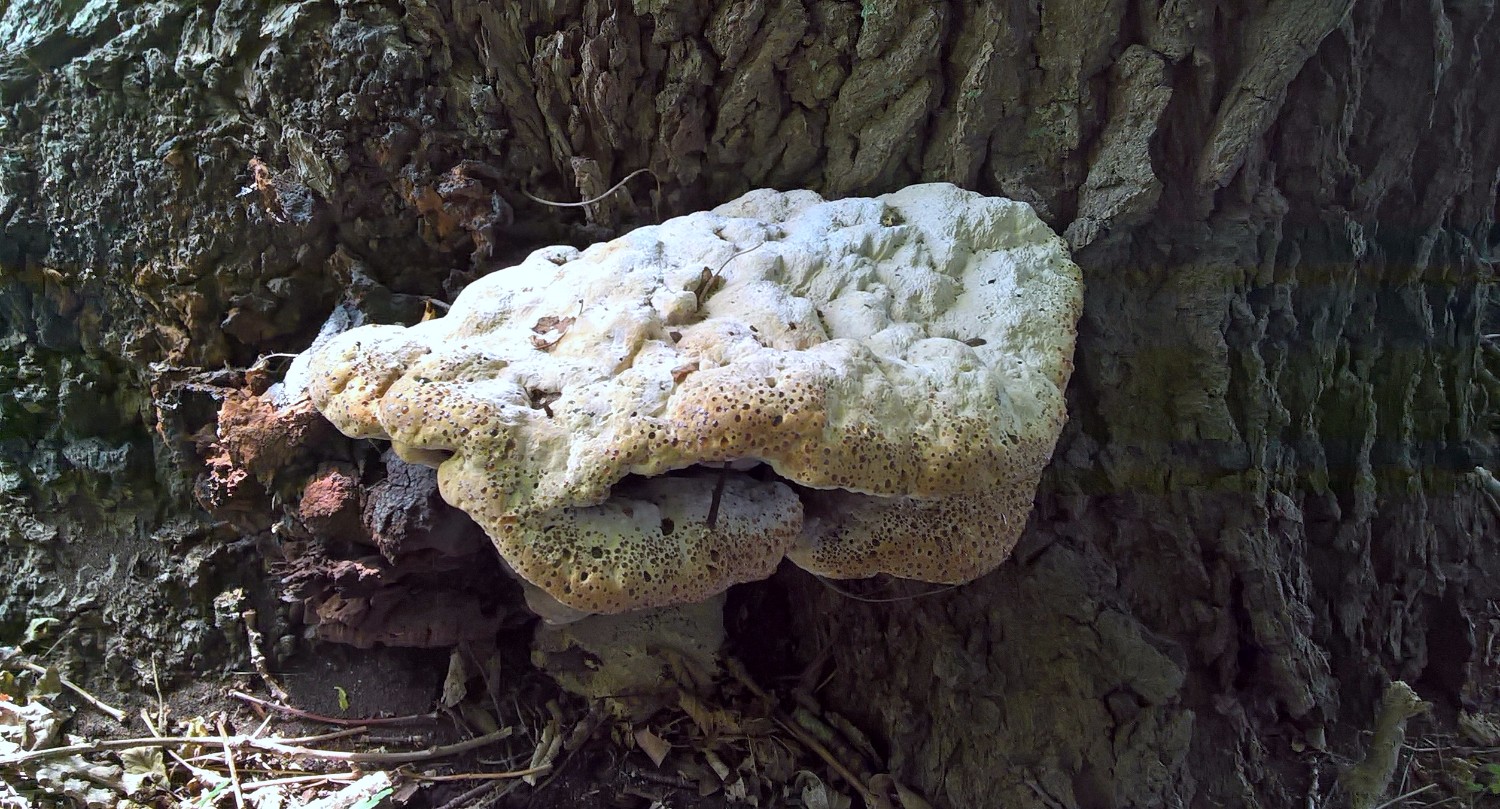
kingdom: Fungi
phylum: Basidiomycota
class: Agaricomycetes
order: Hymenochaetales
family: Hymenochaetaceae
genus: Pseudoinonotus
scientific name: Pseudoinonotus dryadeus
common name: ege-spejlporesvamp
